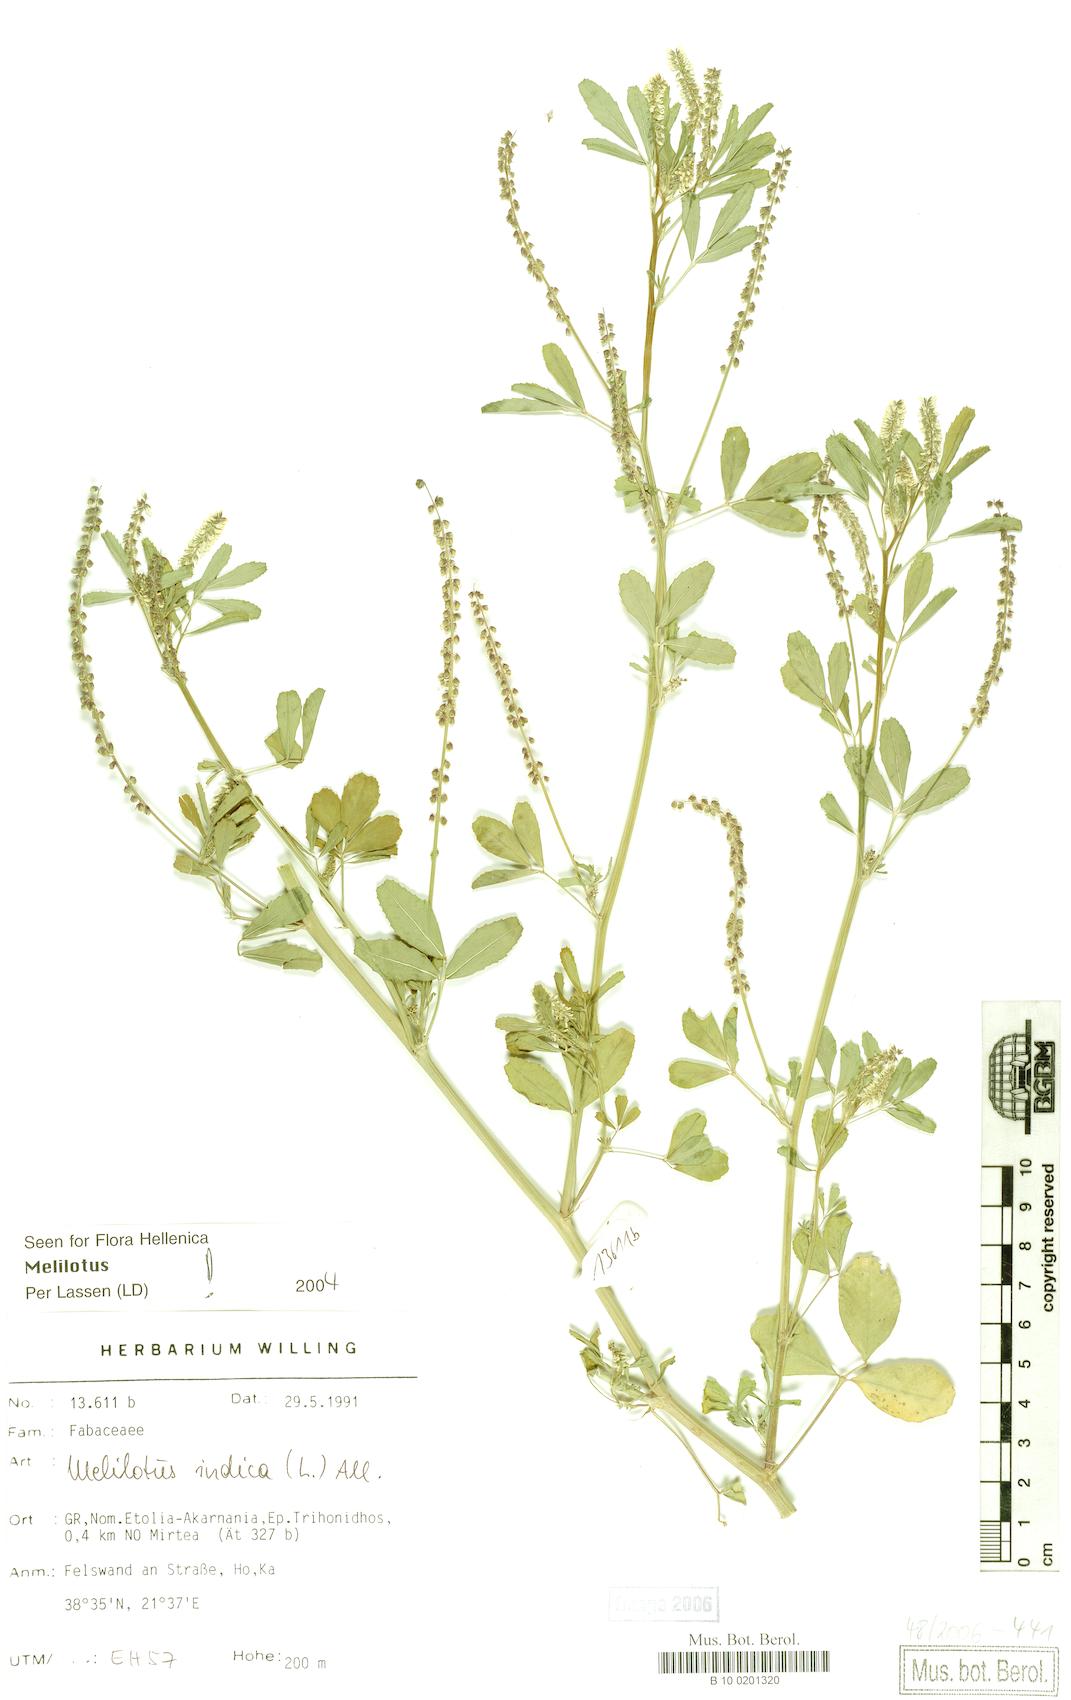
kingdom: Plantae
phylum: Tracheophyta
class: Magnoliopsida
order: Fabales
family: Fabaceae
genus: Melilotus
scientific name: Melilotus indicus
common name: Small melilot
